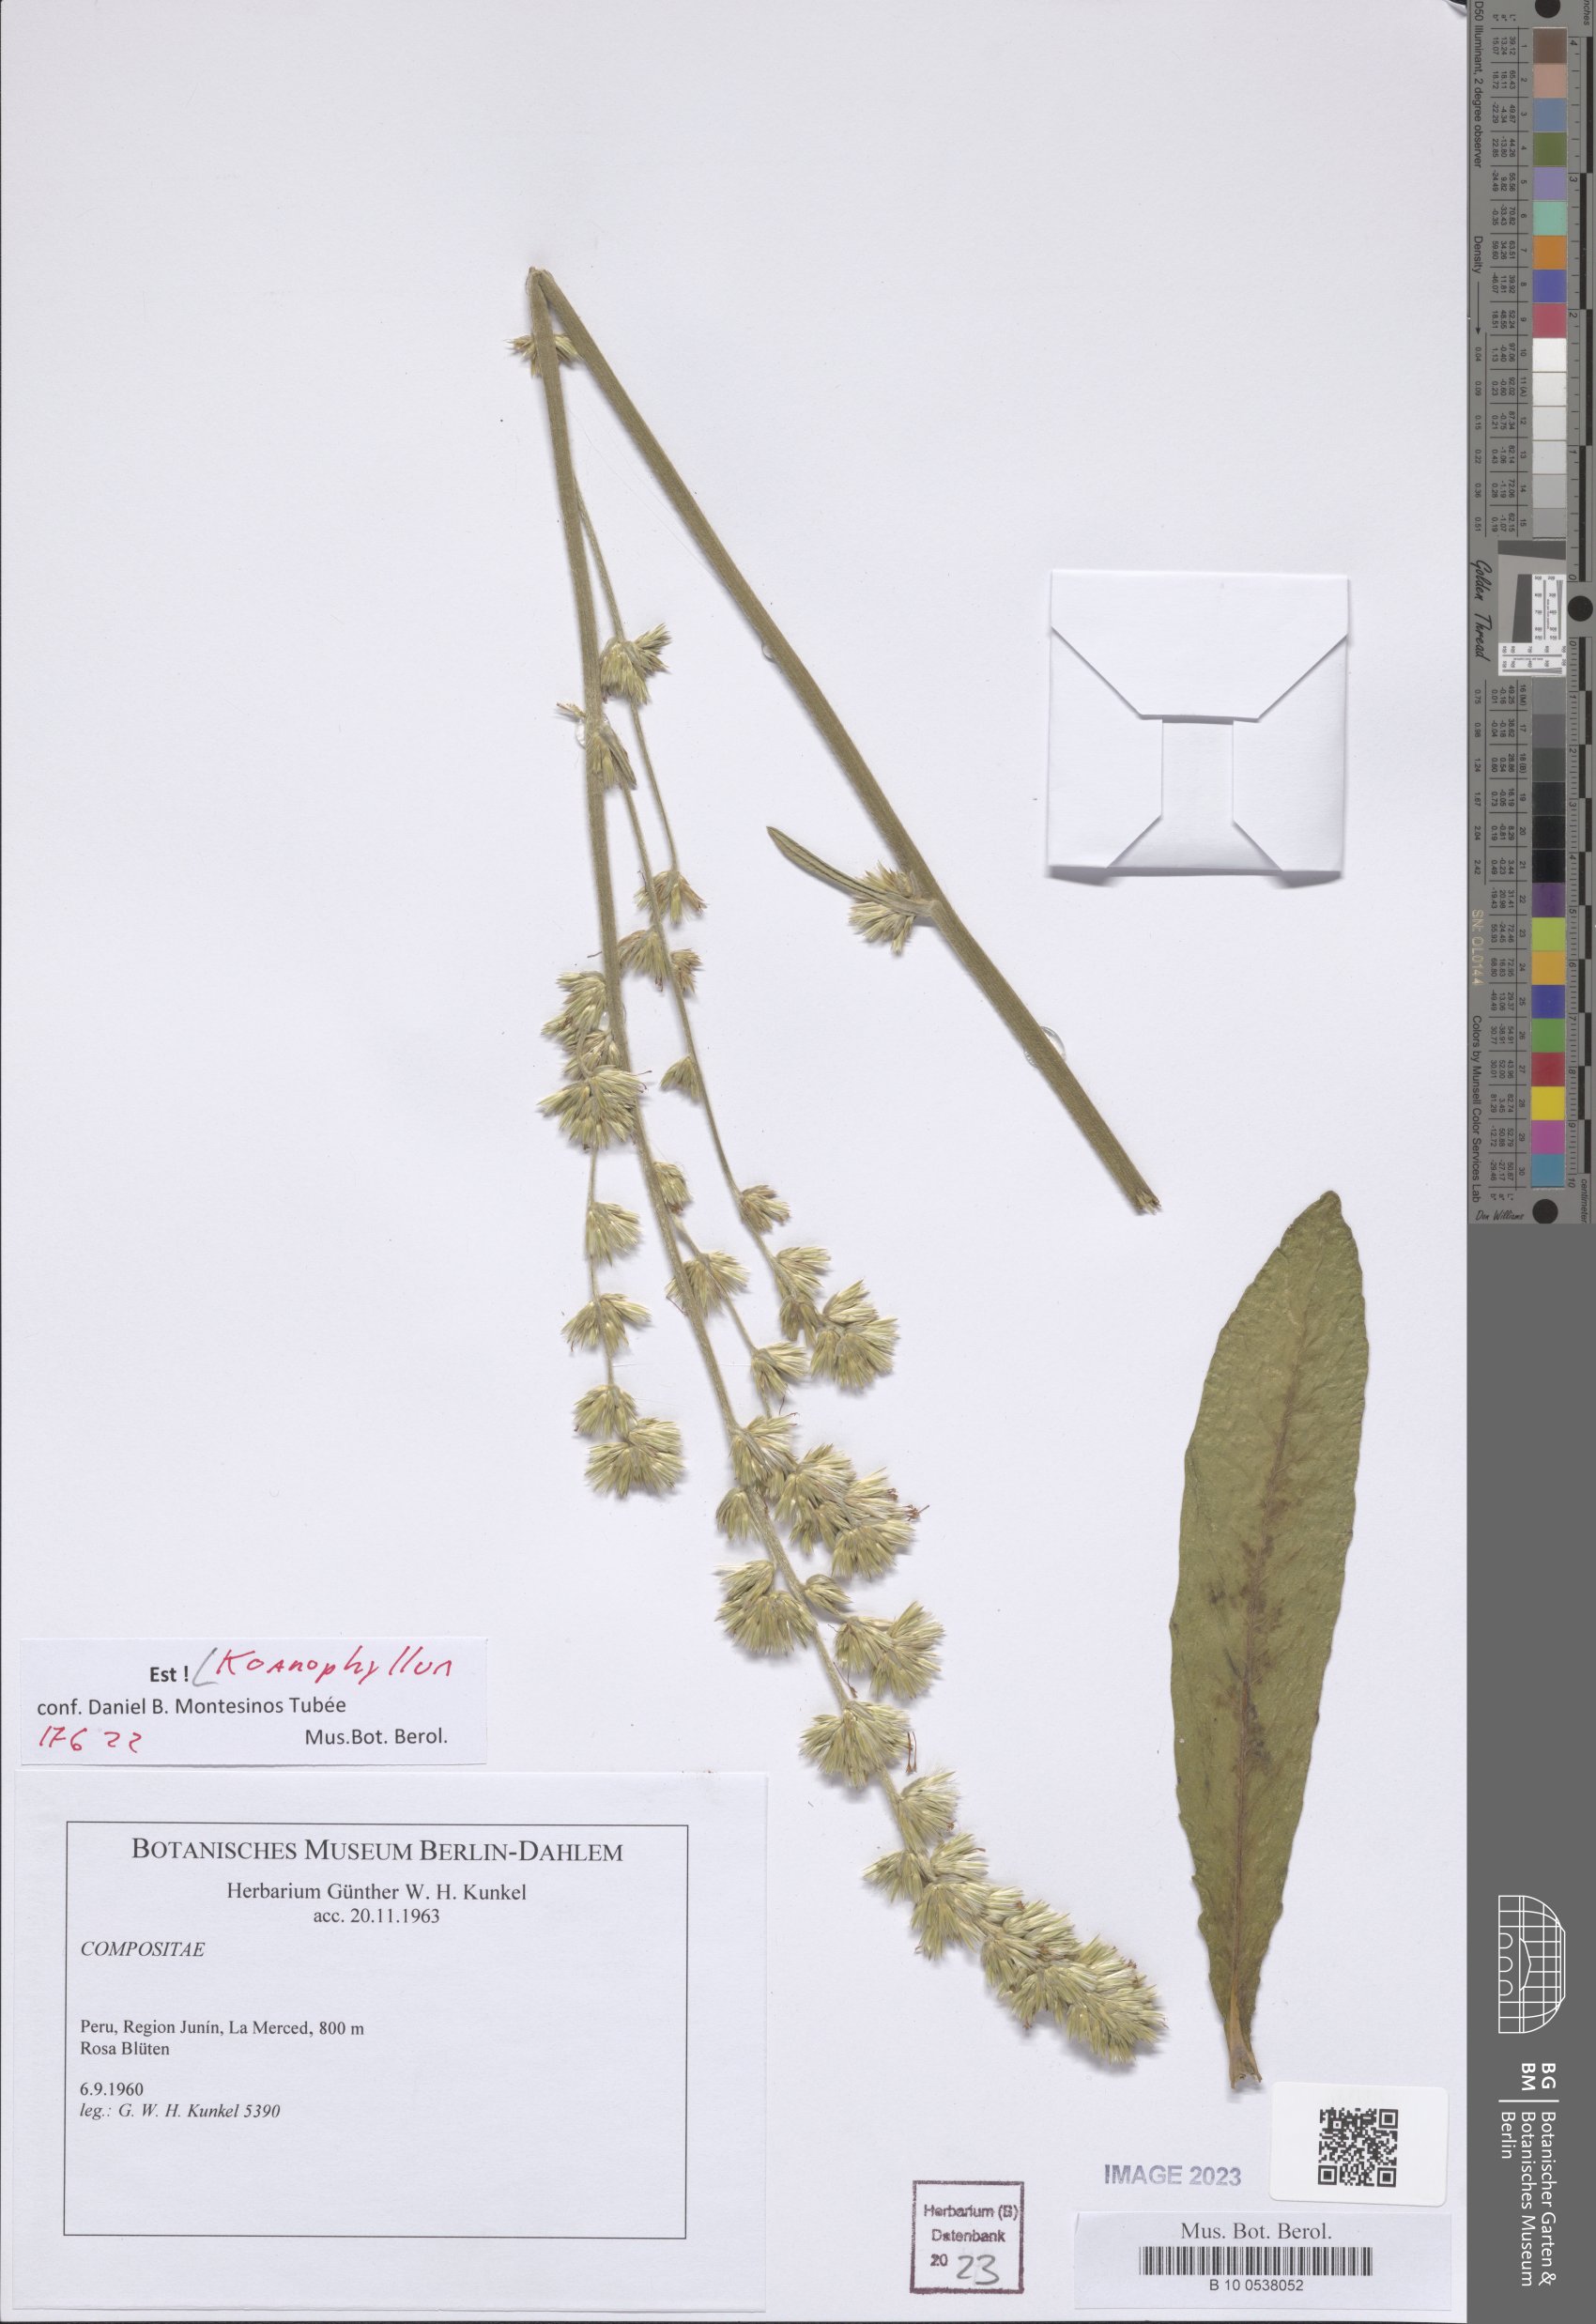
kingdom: Plantae
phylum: Tracheophyta
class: Magnoliopsida
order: Asterales
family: Asteraceae
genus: Koanophyllon
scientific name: Koanophyllon
